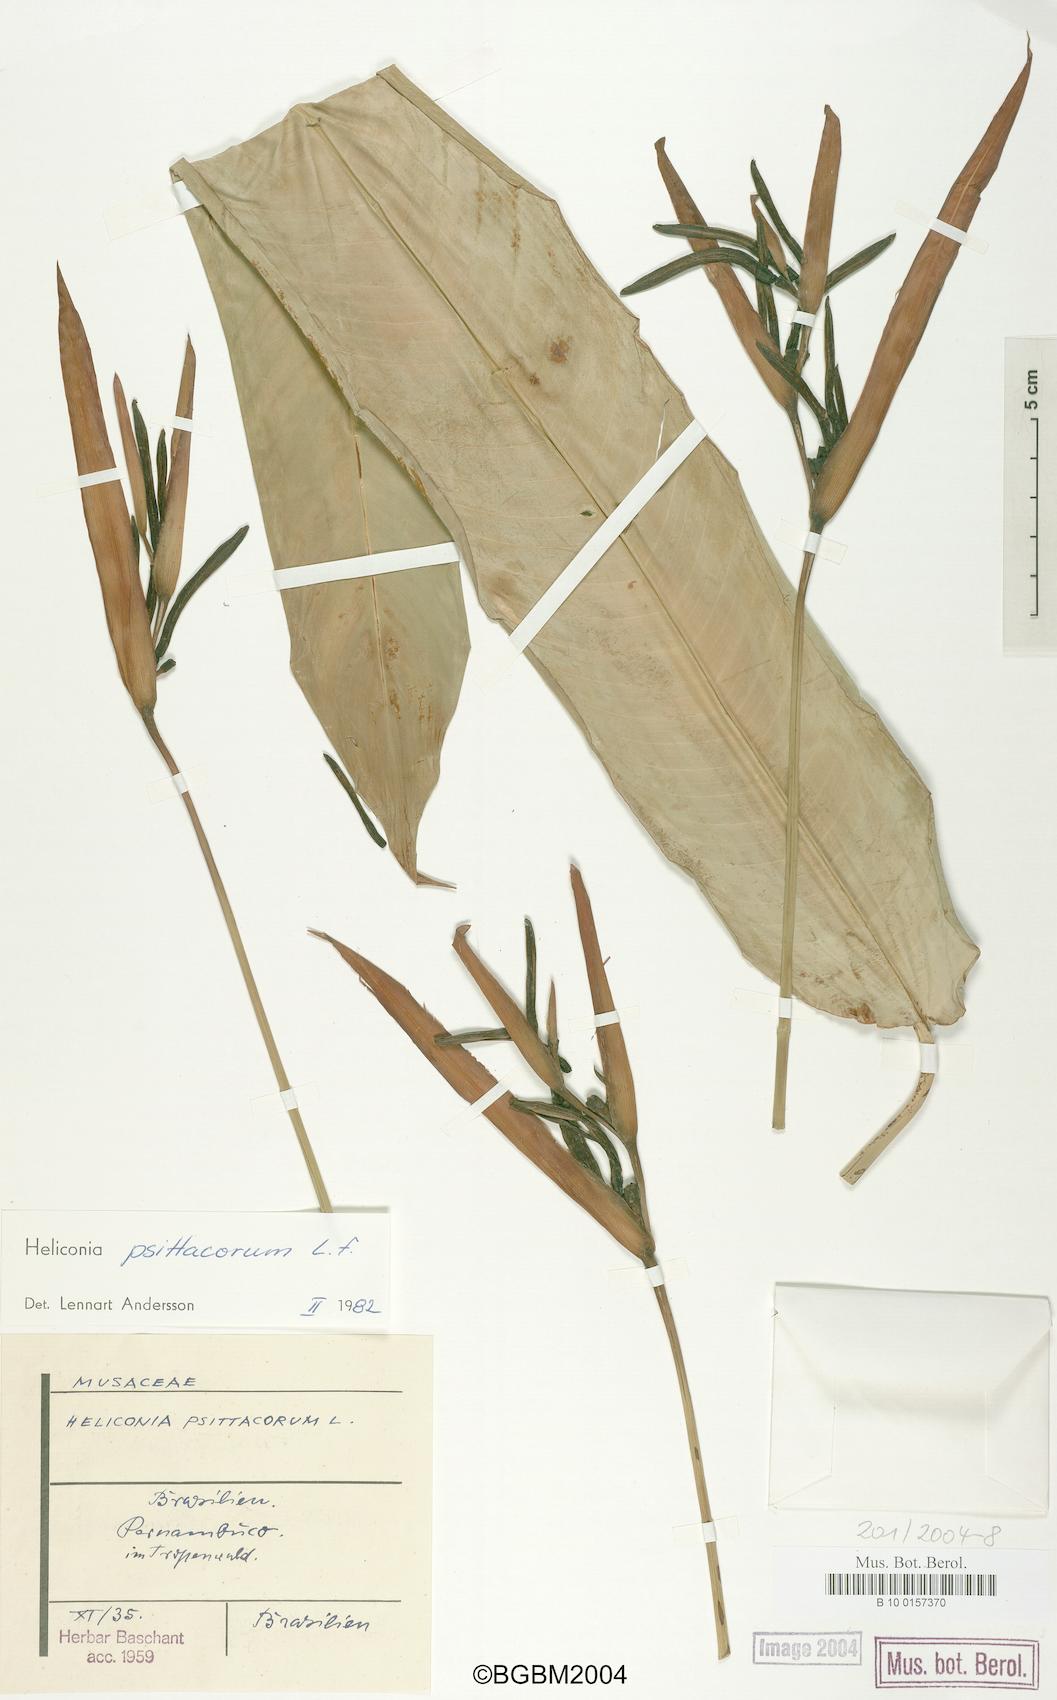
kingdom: Plantae
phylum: Tracheophyta
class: Liliopsida
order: Zingiberales
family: Heliconiaceae
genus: Heliconia
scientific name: Heliconia psittacorum
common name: Parrot's-flower
